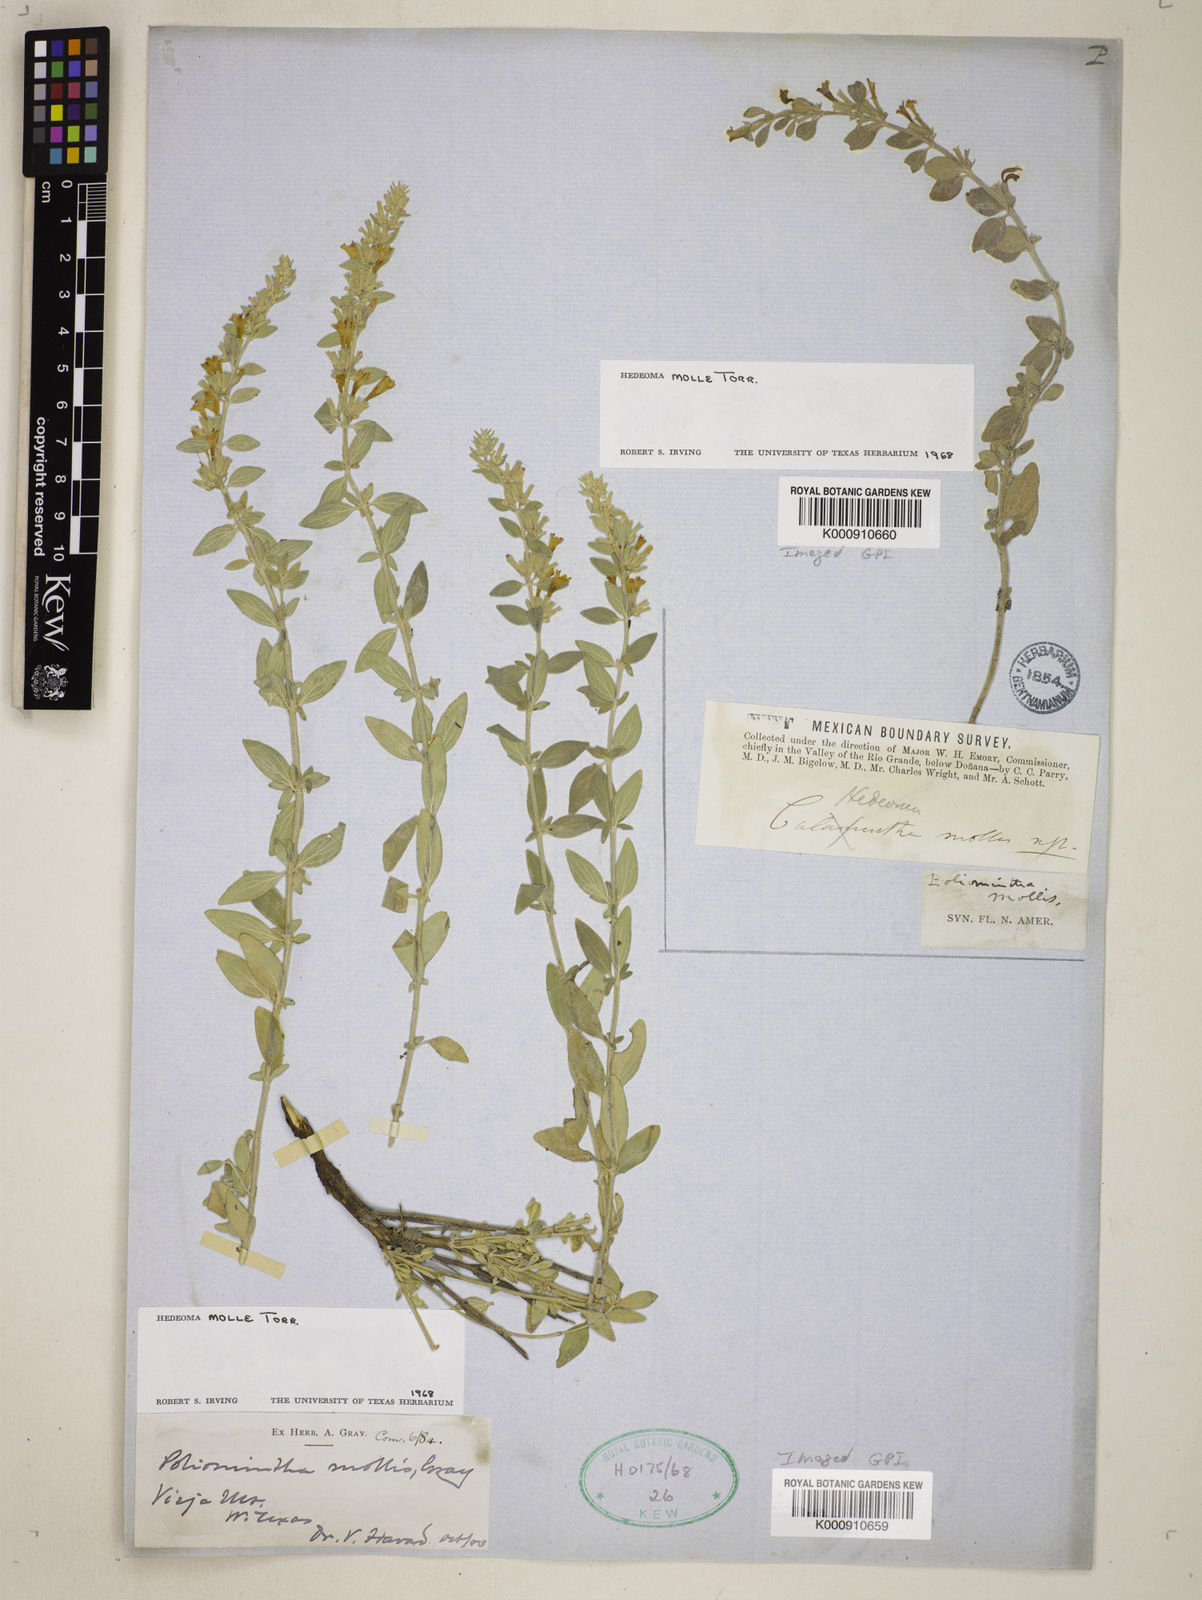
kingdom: Plantae
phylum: Tracheophyta
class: Magnoliopsida
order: Lamiales
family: Lamiaceae
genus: Hedeoma
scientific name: Hedeoma
